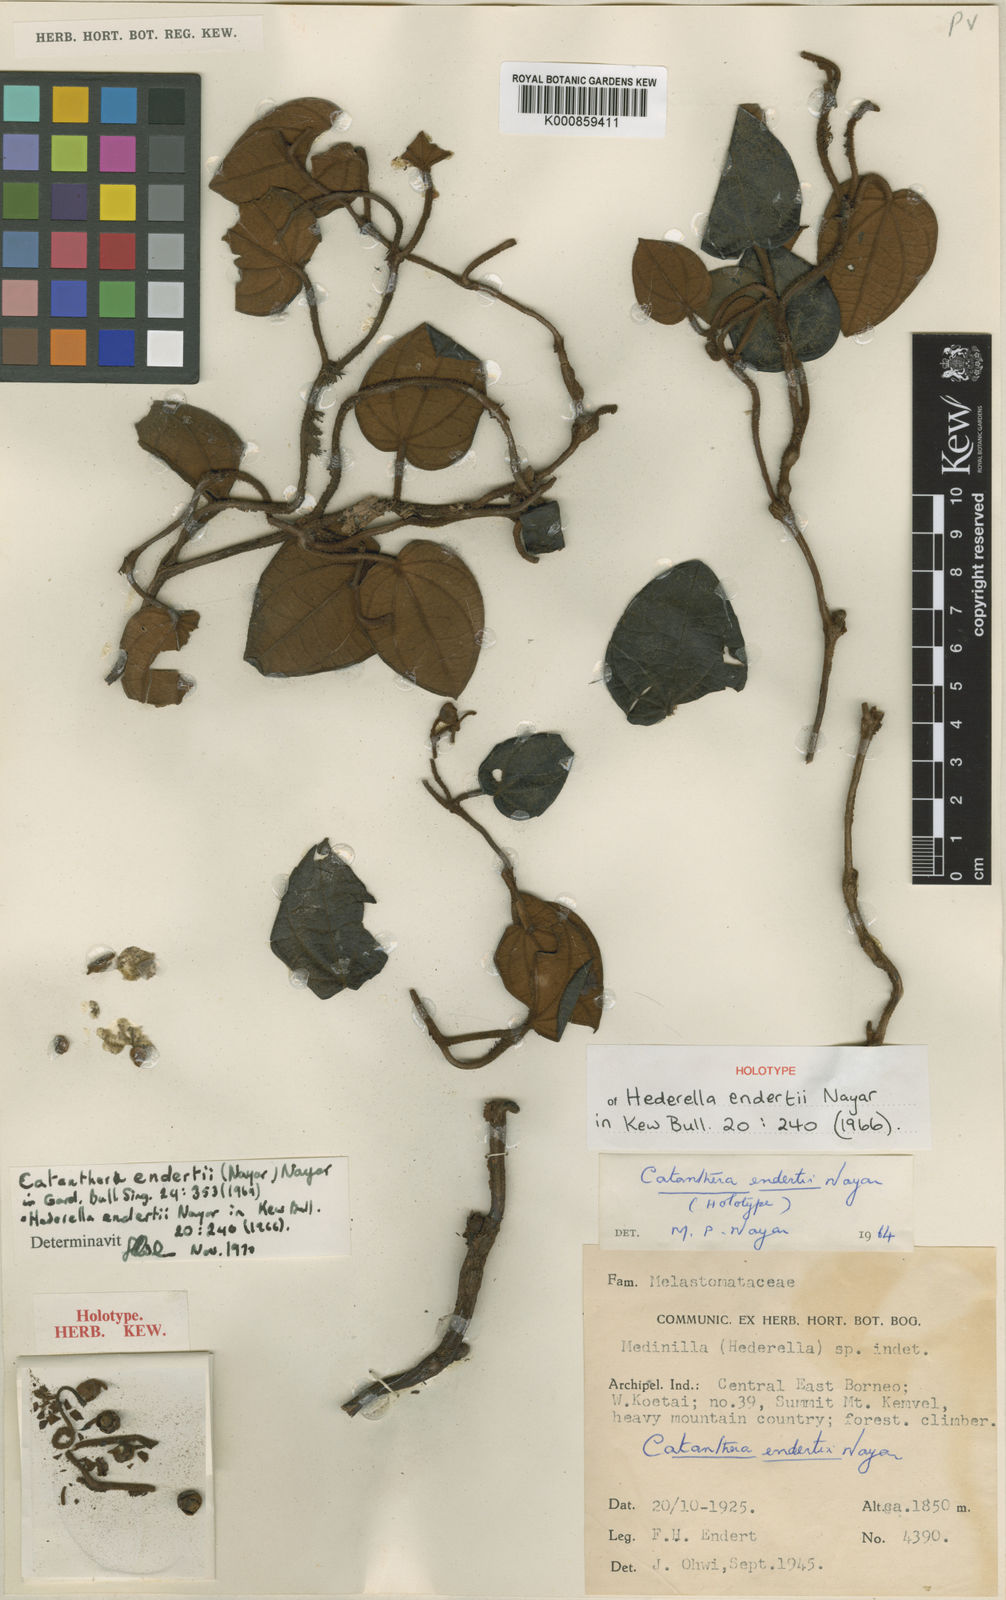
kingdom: Plantae
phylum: Tracheophyta
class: Magnoliopsida
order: Myrtales
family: Melastomataceae
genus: Catanthera
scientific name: Catanthera endertii
